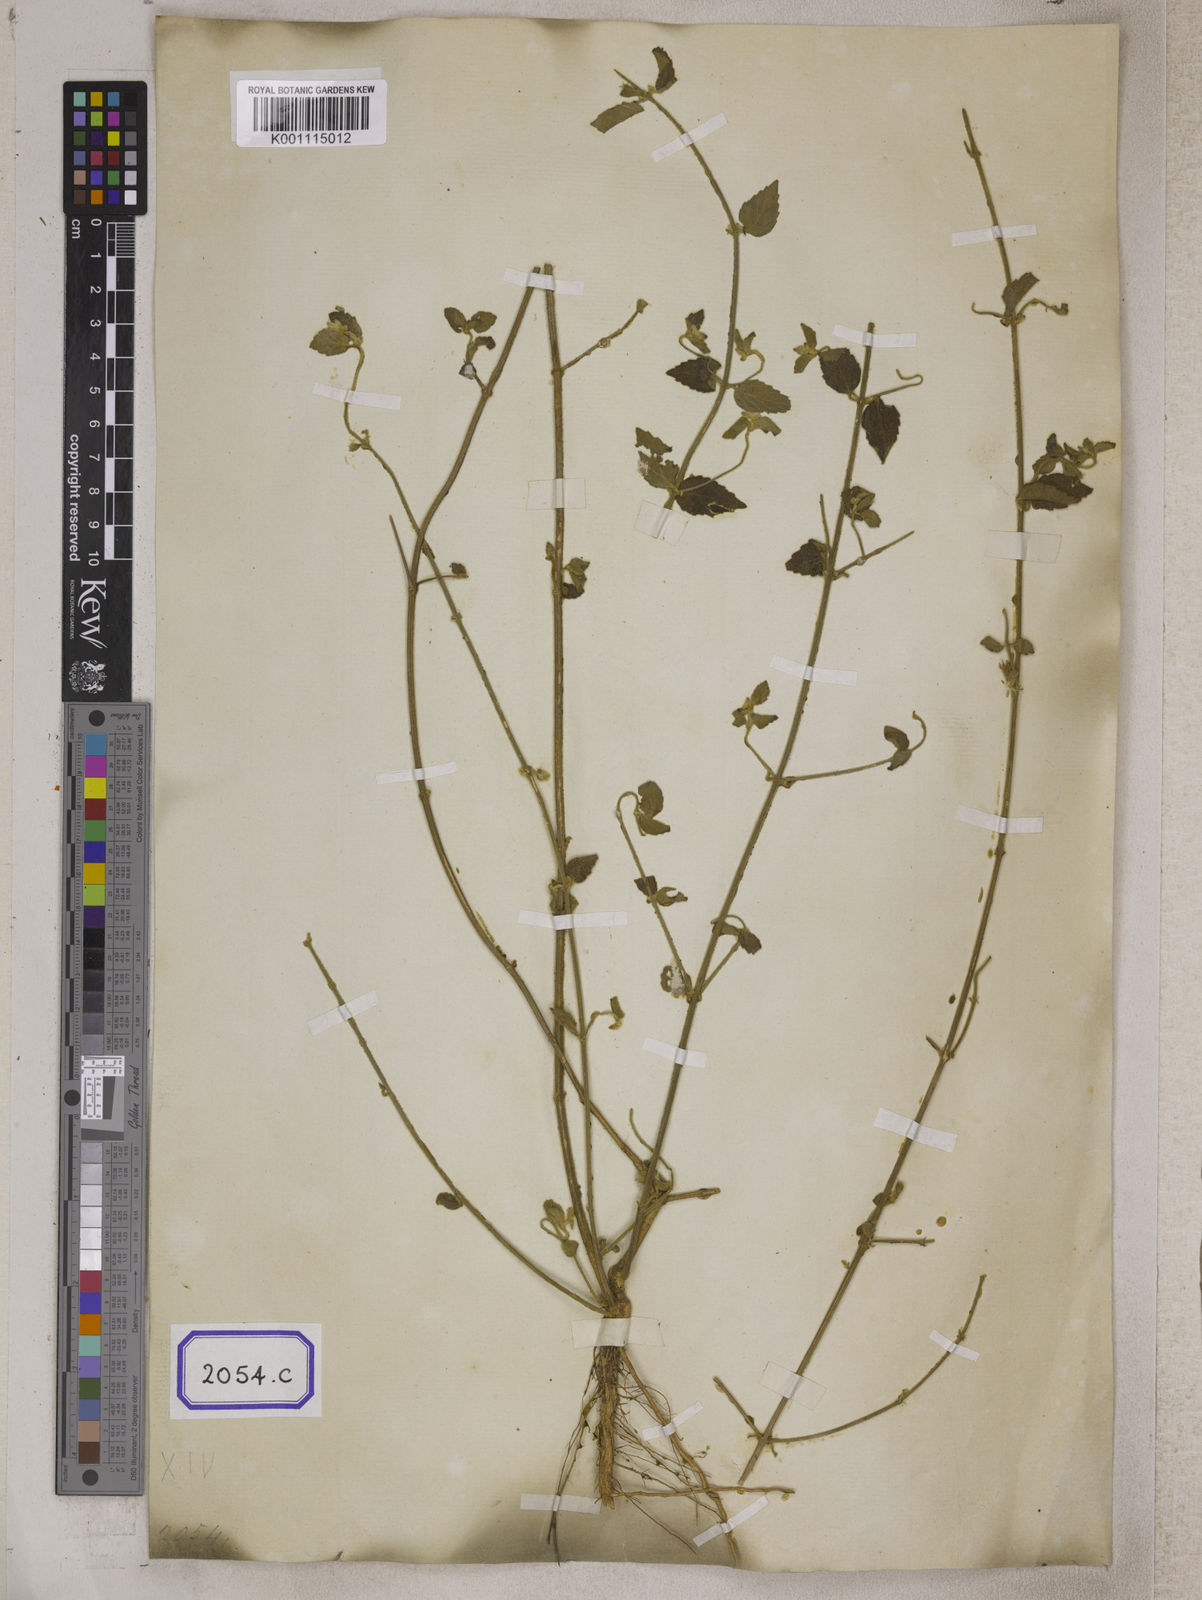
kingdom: Plantae
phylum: Tracheophyta
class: Magnoliopsida
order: Lamiales
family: Lamiaceae
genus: Leucas
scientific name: Leucas
